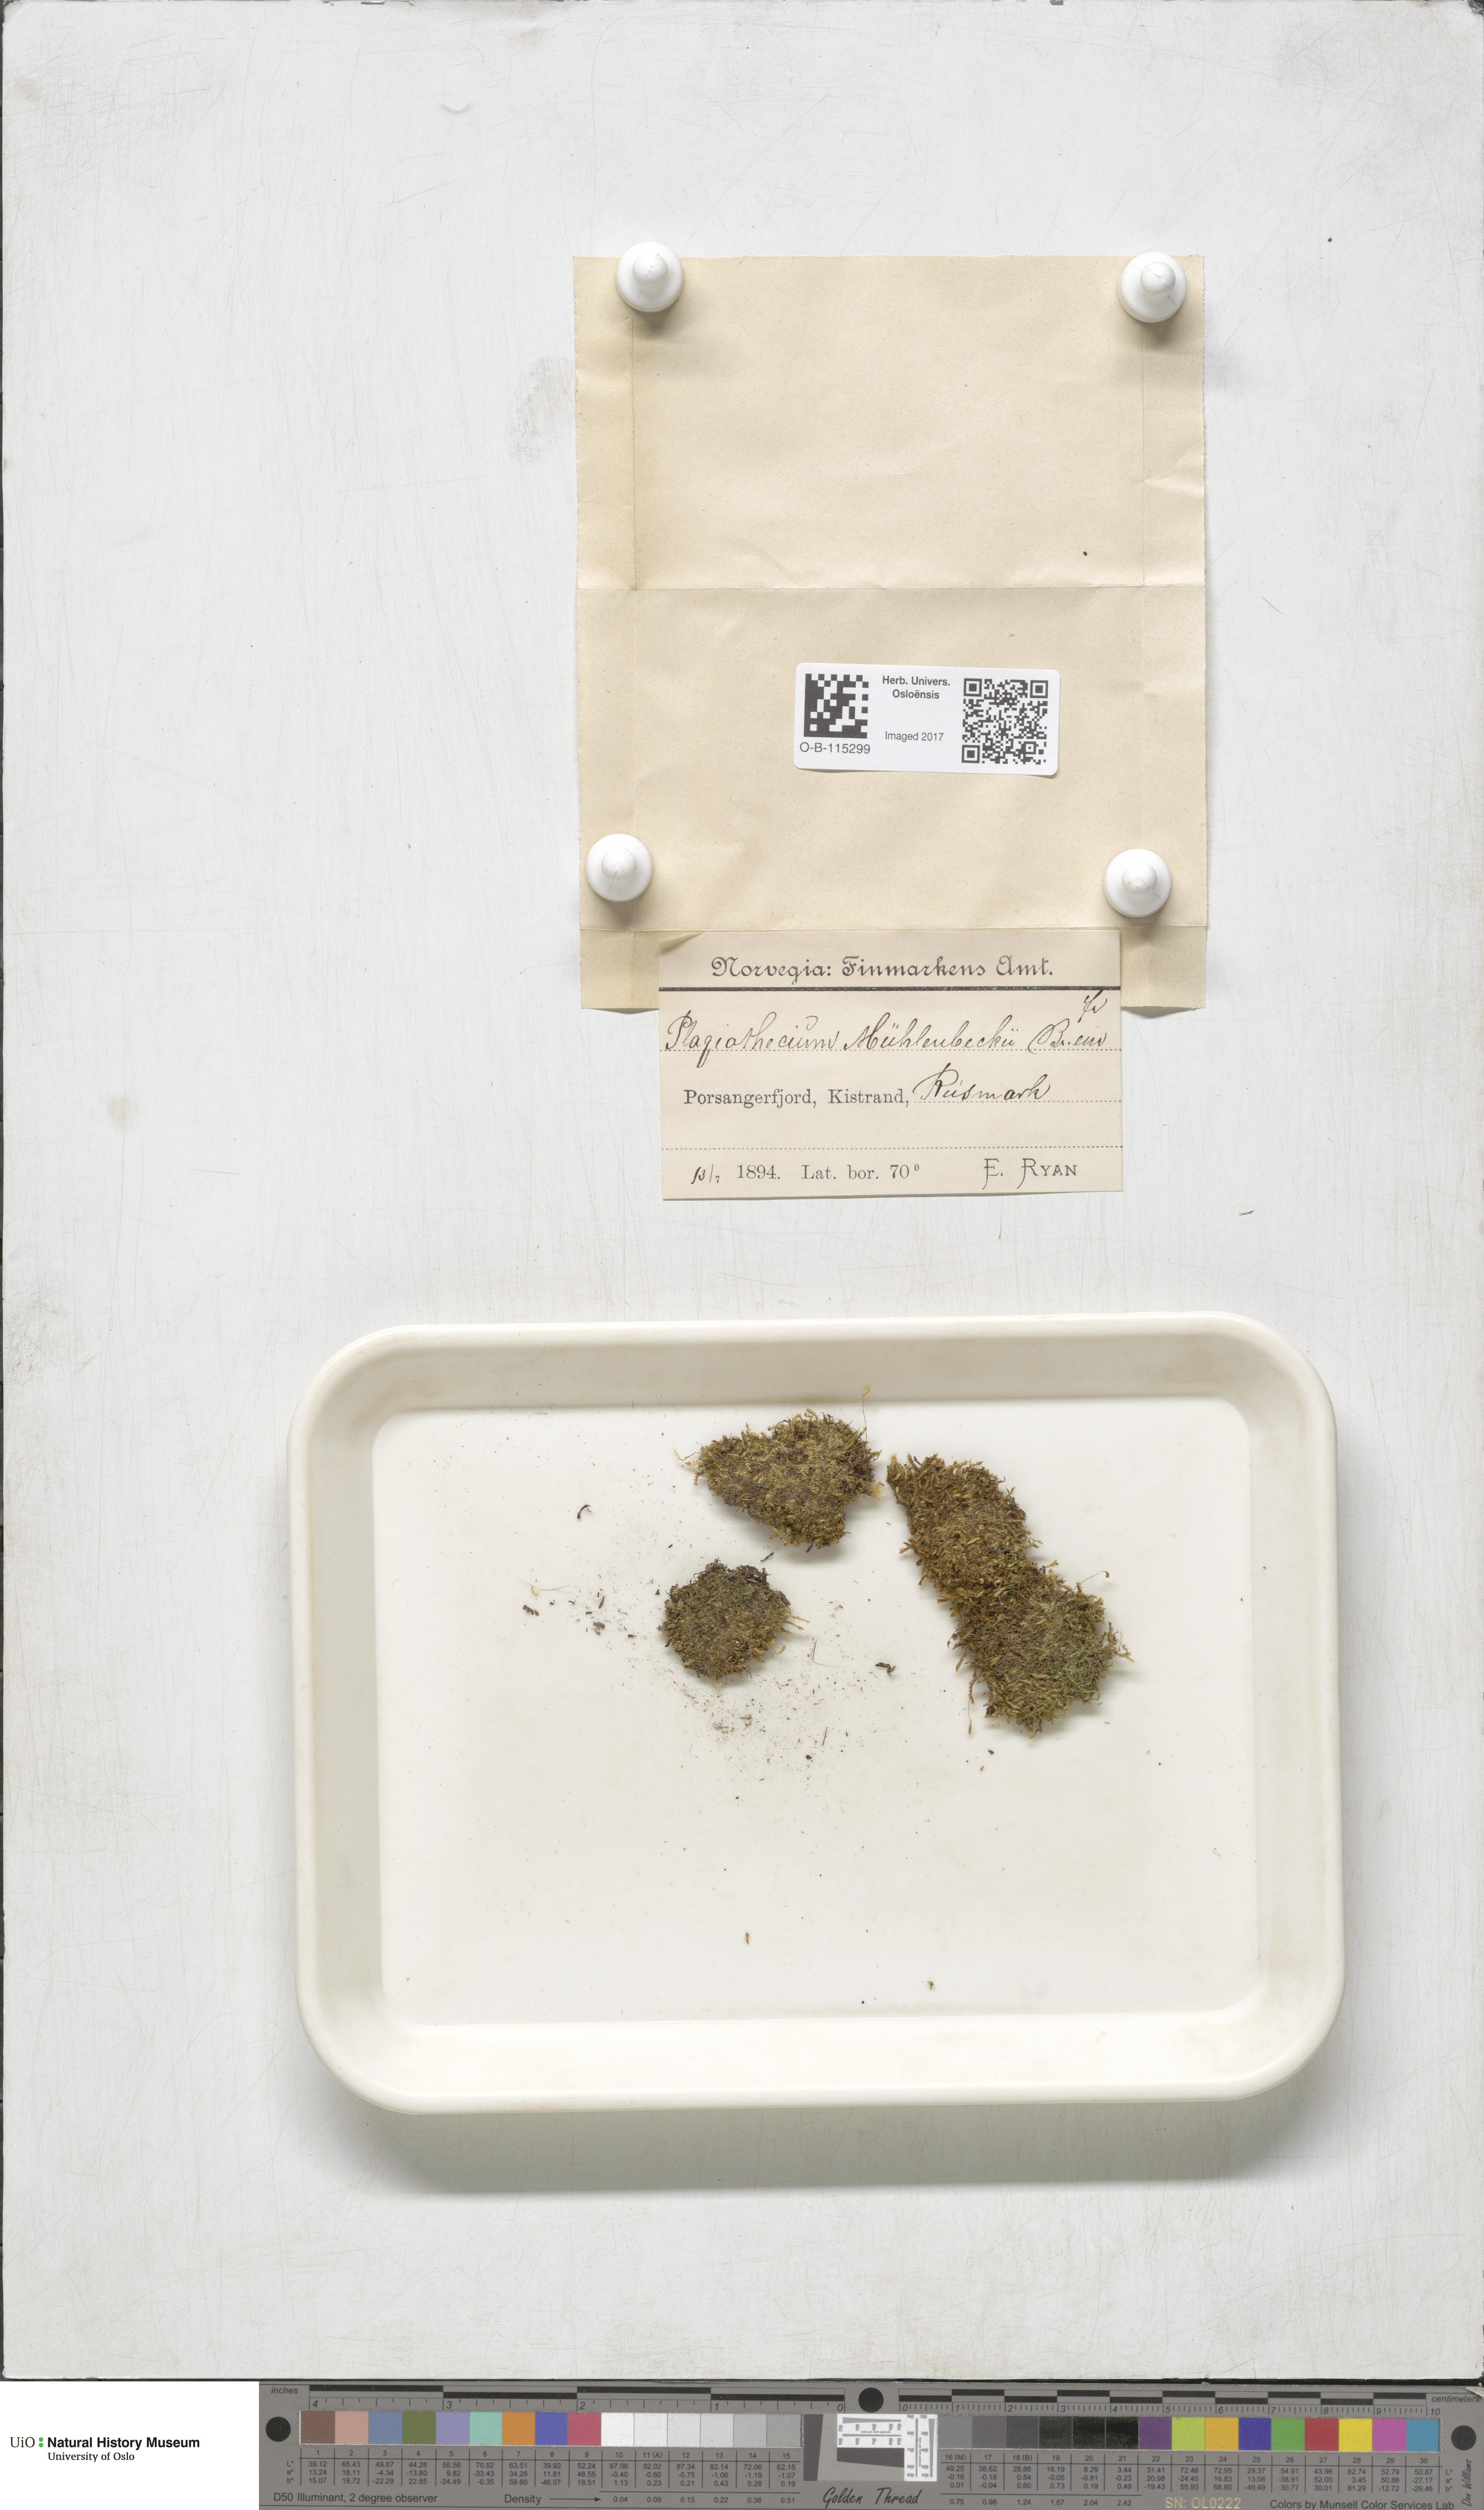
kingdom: Plantae
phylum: Bryophyta
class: Bryopsida
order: Hypnales
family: Plagiotheciaceae
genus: Herzogiella
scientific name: Herzogiella striatella
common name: Muhlenbeck's feather-moss
